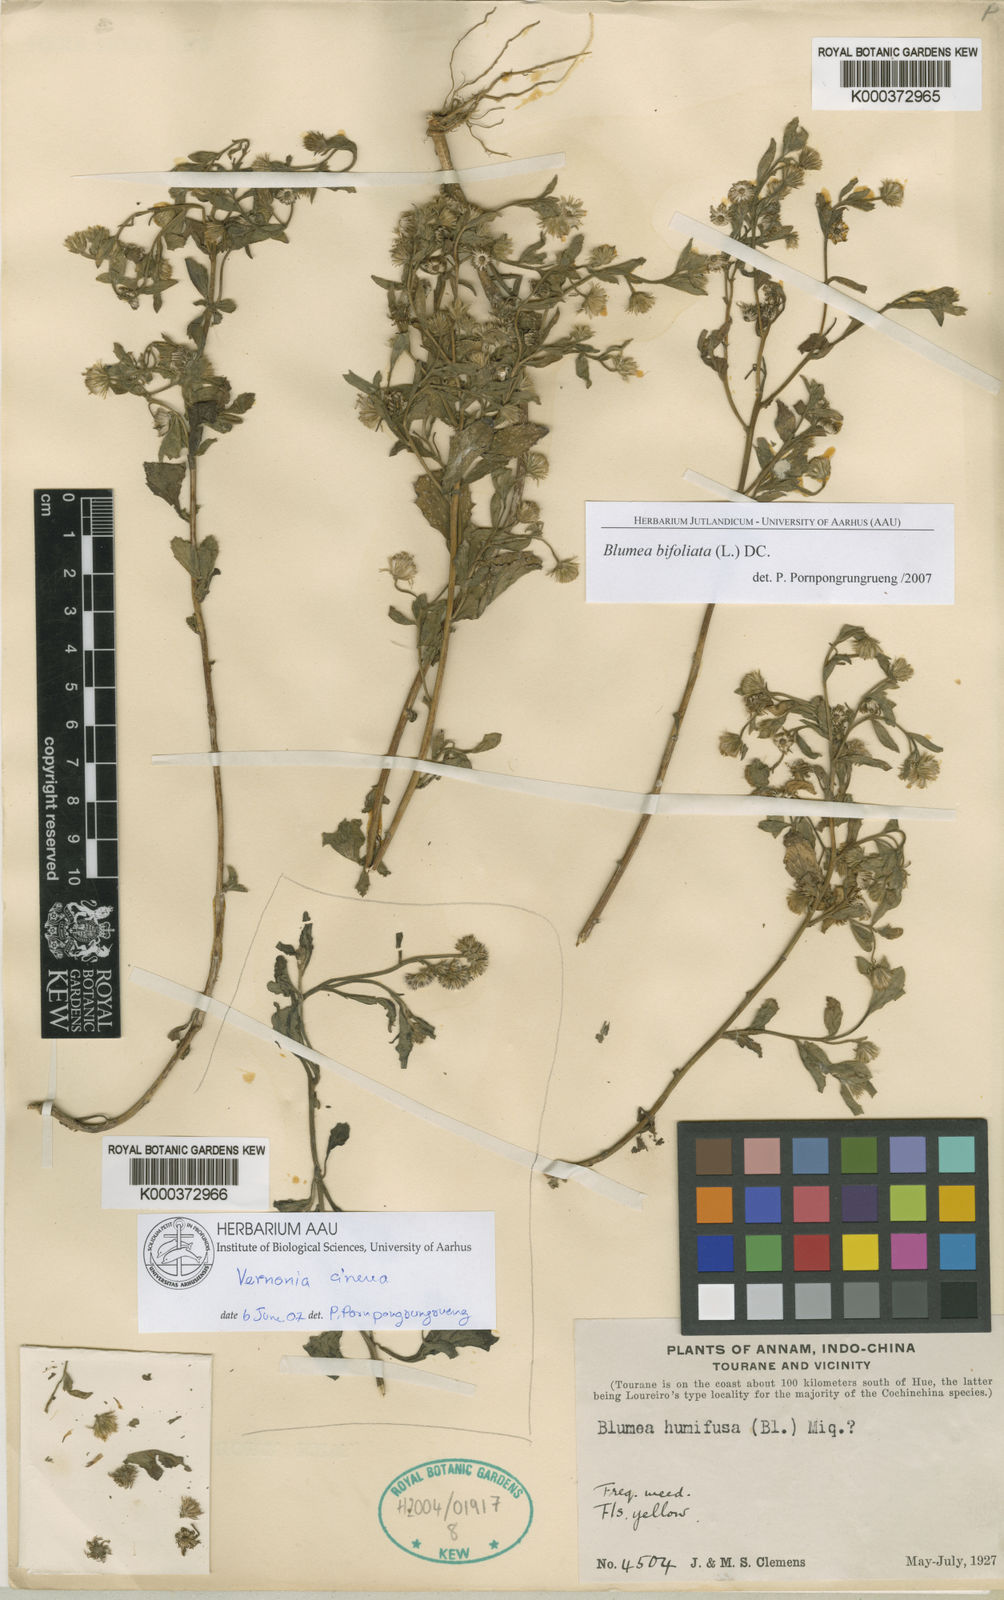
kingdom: Plantae
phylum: Tracheophyta
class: Magnoliopsida
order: Asterales
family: Asteraceae
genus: Blumea
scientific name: Blumea bifoliata
